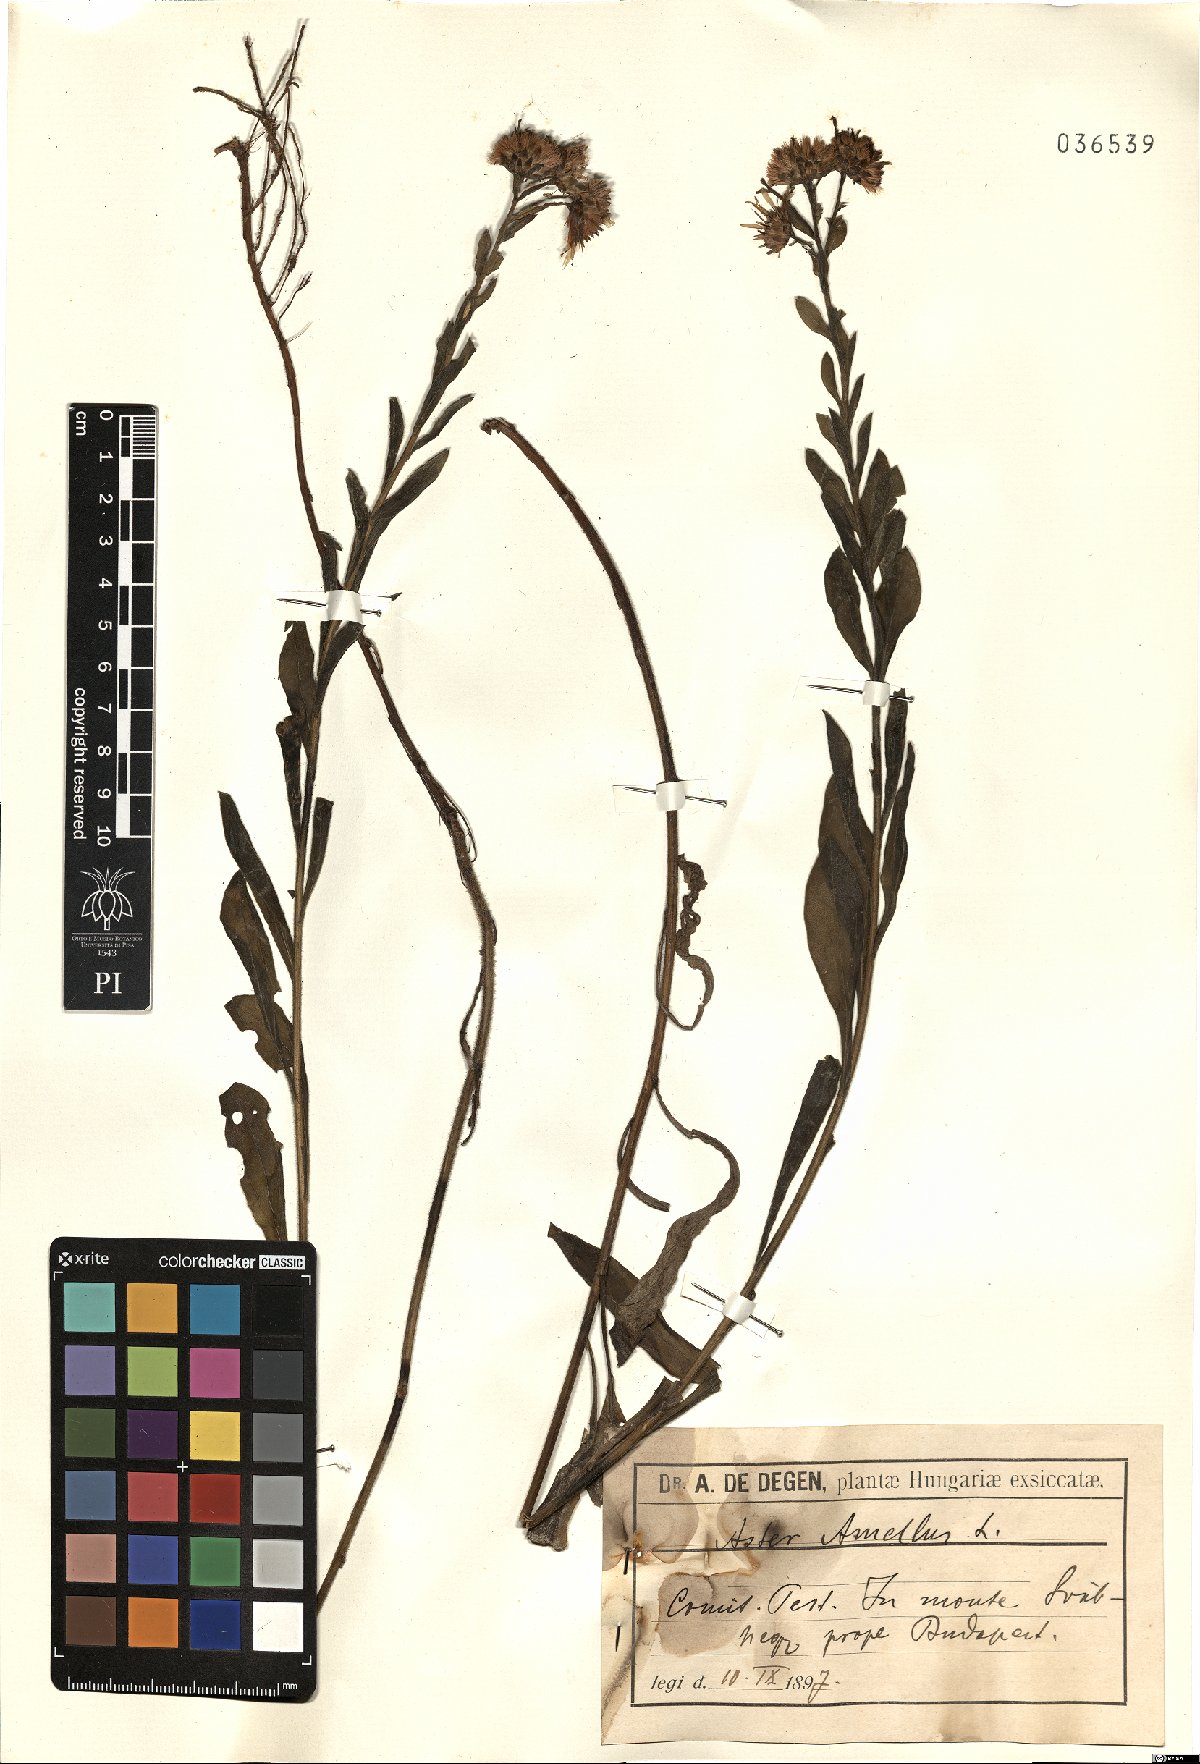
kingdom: Plantae
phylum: Tracheophyta
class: Magnoliopsida
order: Asterales
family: Asteraceae
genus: Aster
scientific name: Aster amellus
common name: European michaelmas daisy
